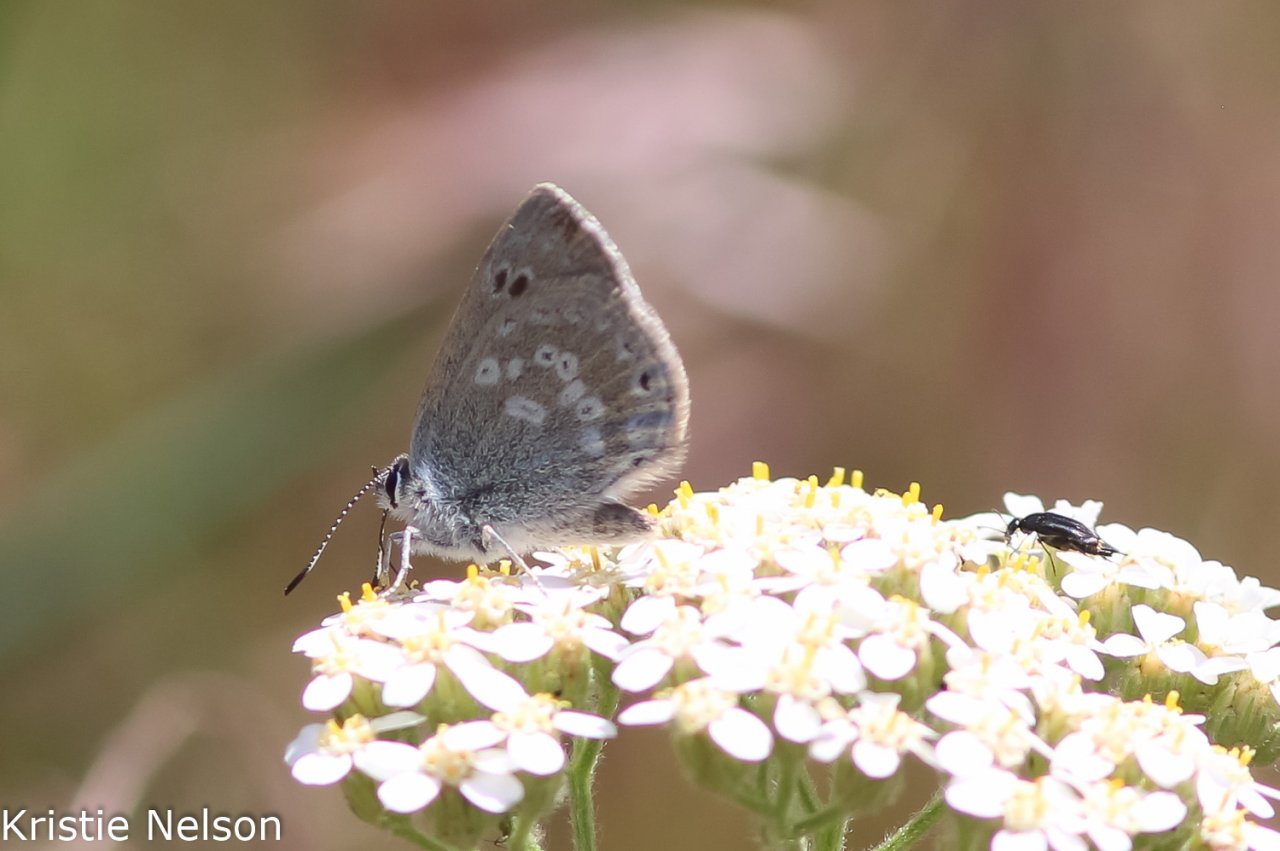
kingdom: Animalia
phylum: Arthropoda
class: Insecta
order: Lepidoptera
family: Lycaenidae
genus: Satyrium
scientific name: Satyrium fuliginosa
